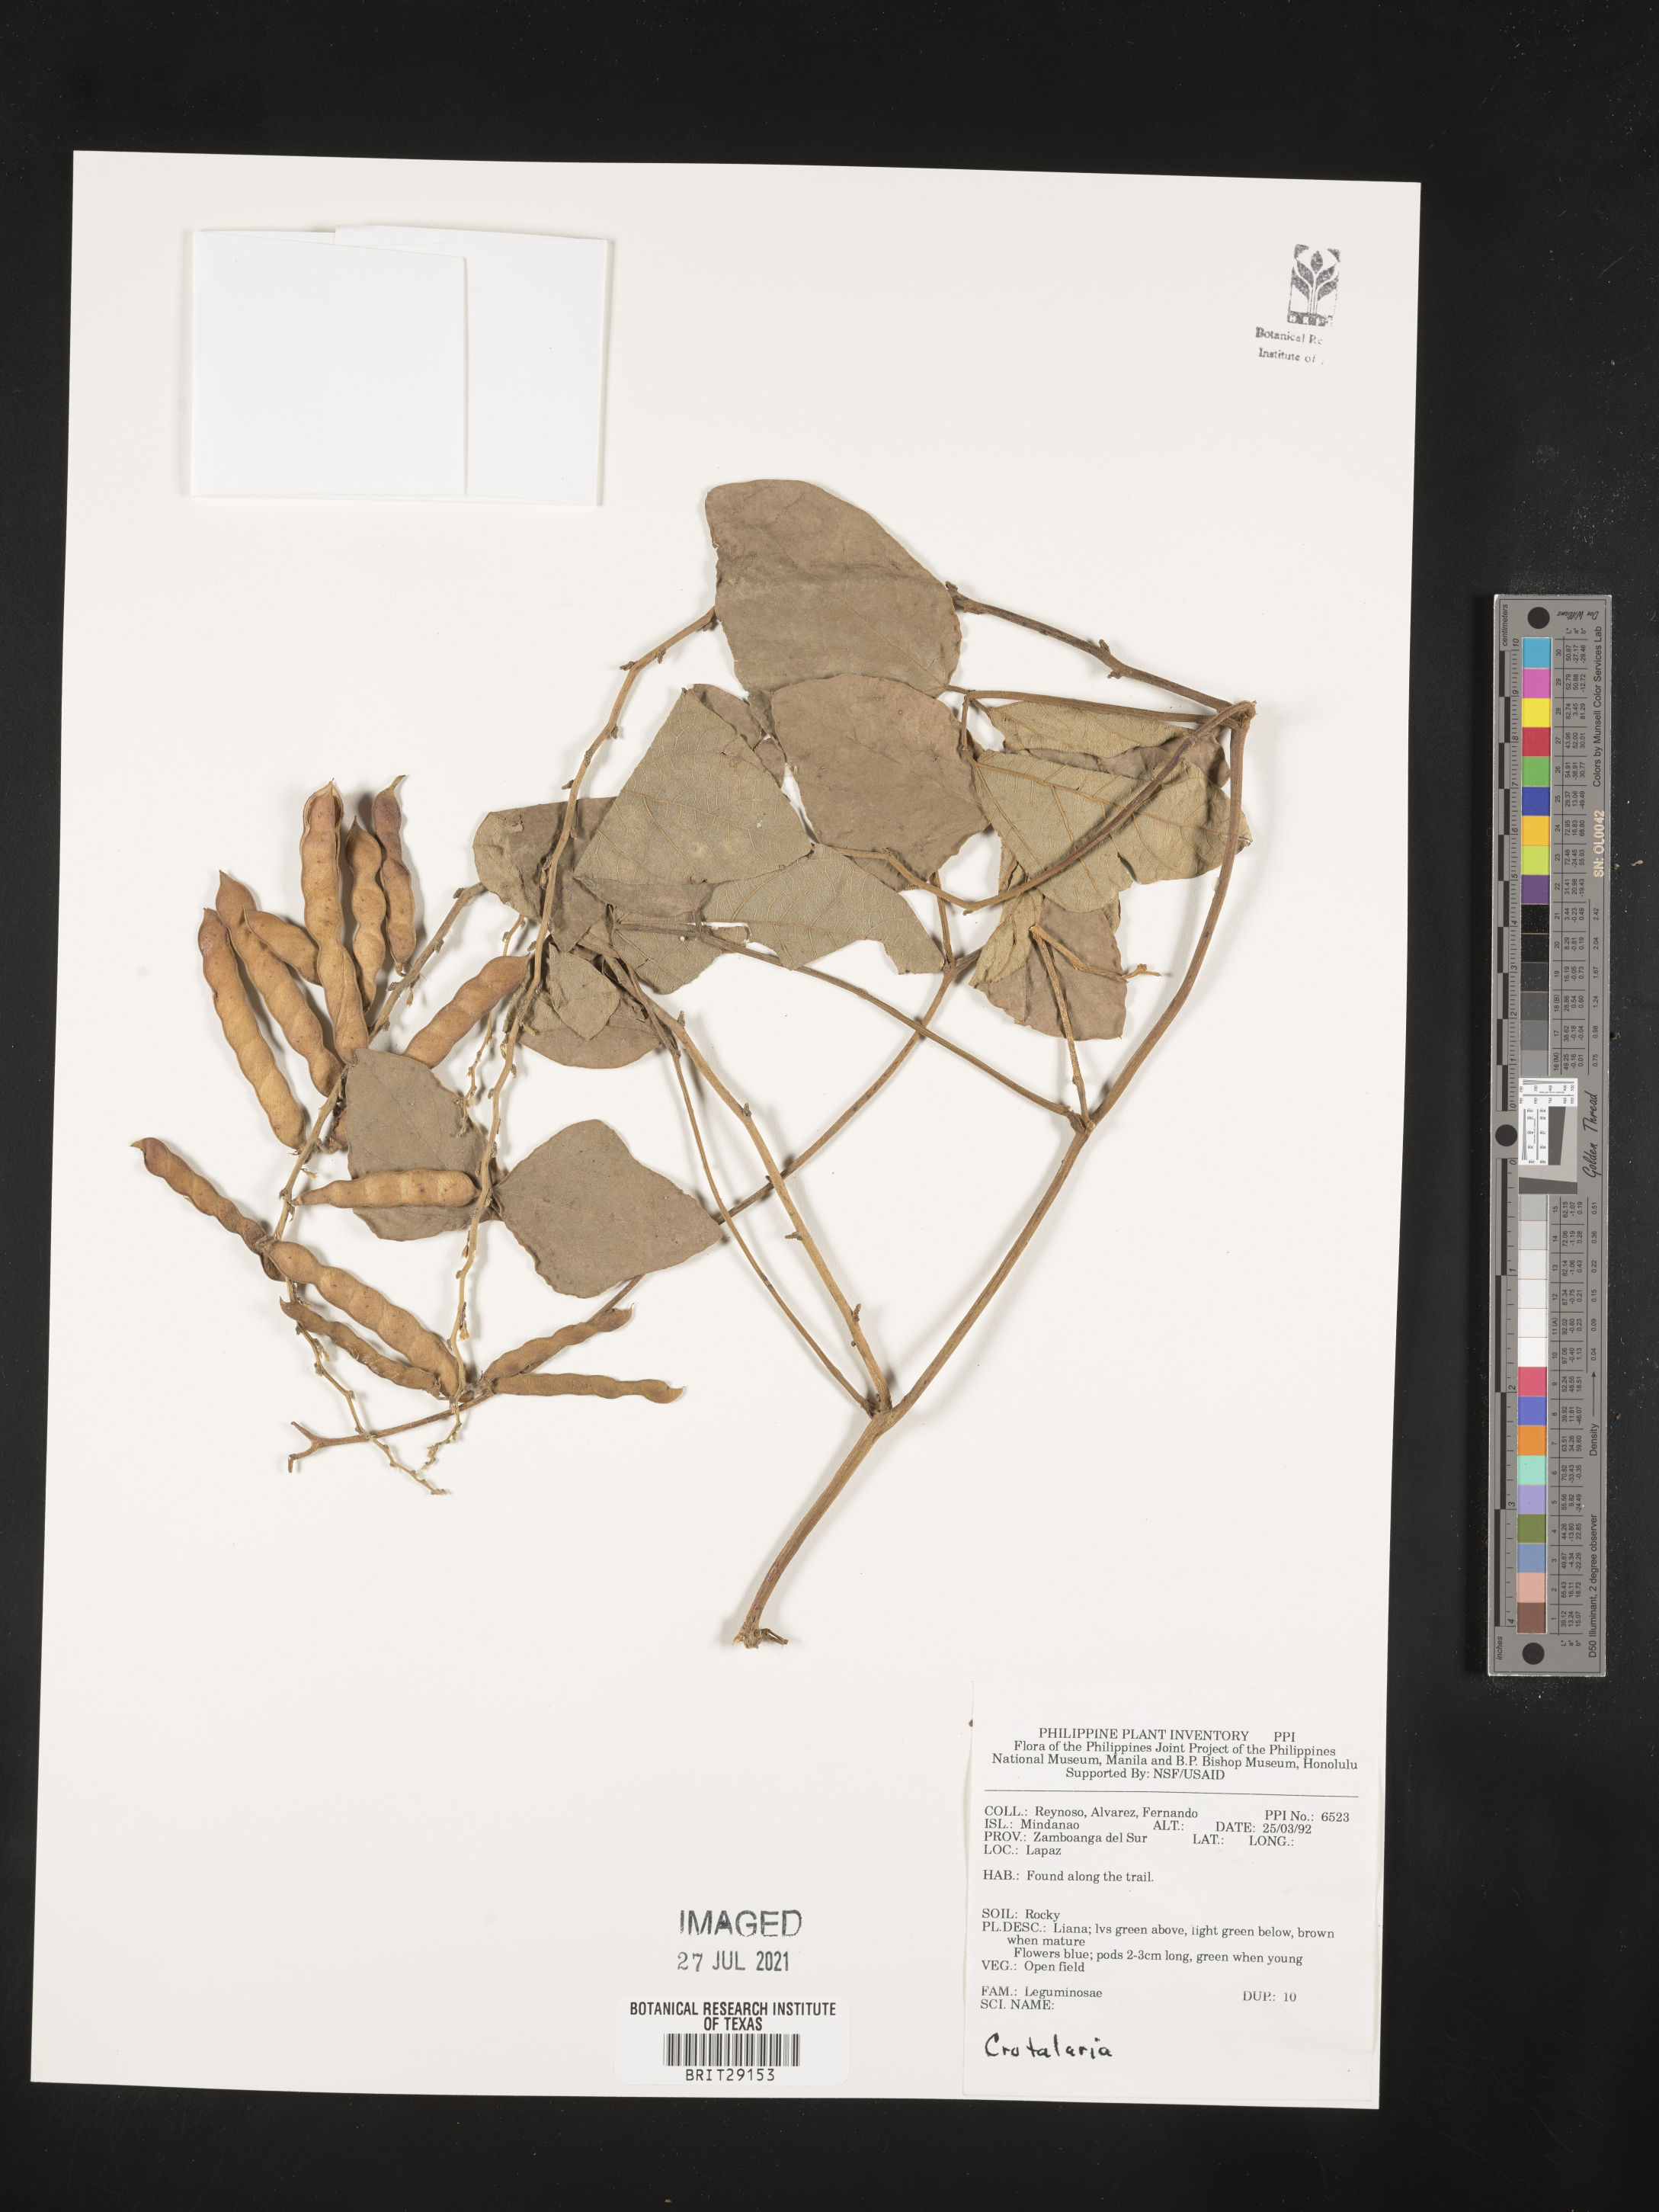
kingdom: Plantae
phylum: Tracheophyta
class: Magnoliopsida
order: Fabales
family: Fabaceae
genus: Crotalaria
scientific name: Crotalaria
